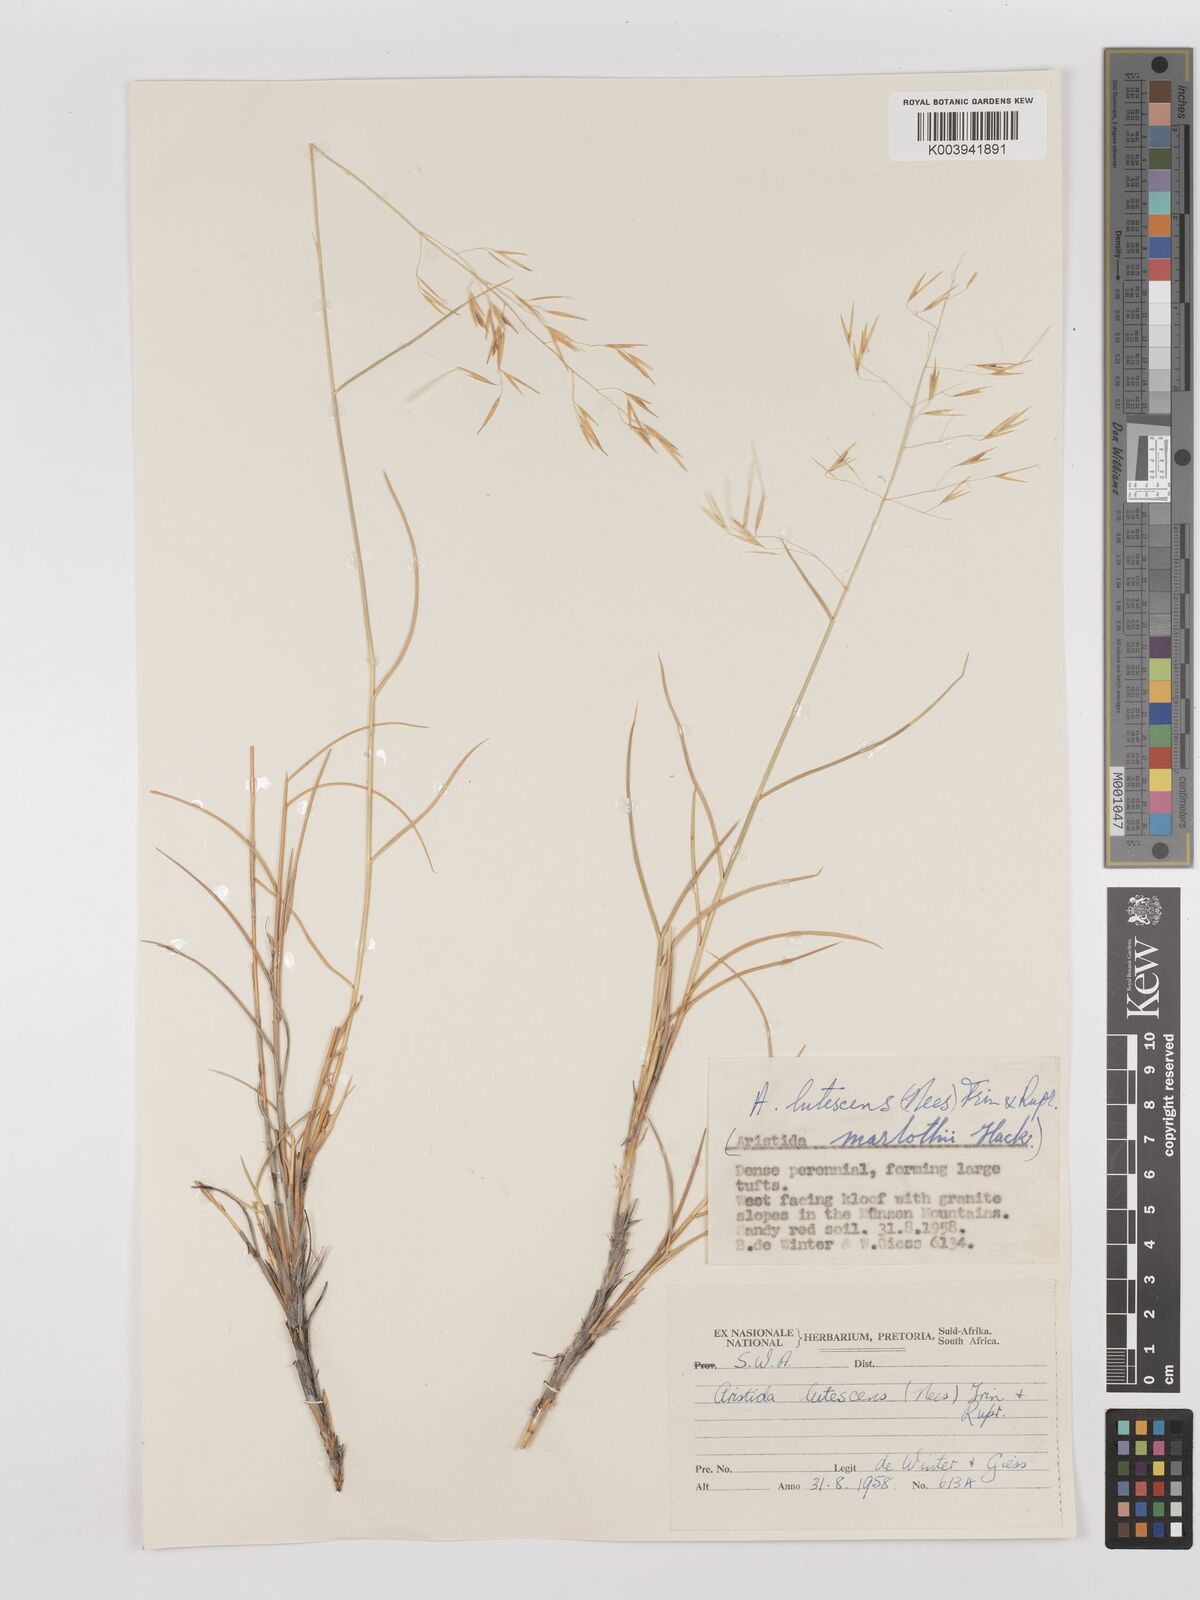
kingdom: Plantae
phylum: Tracheophyta
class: Liliopsida
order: Poales
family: Poaceae
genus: Stipagrostis
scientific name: Stipagrostis lutescens
